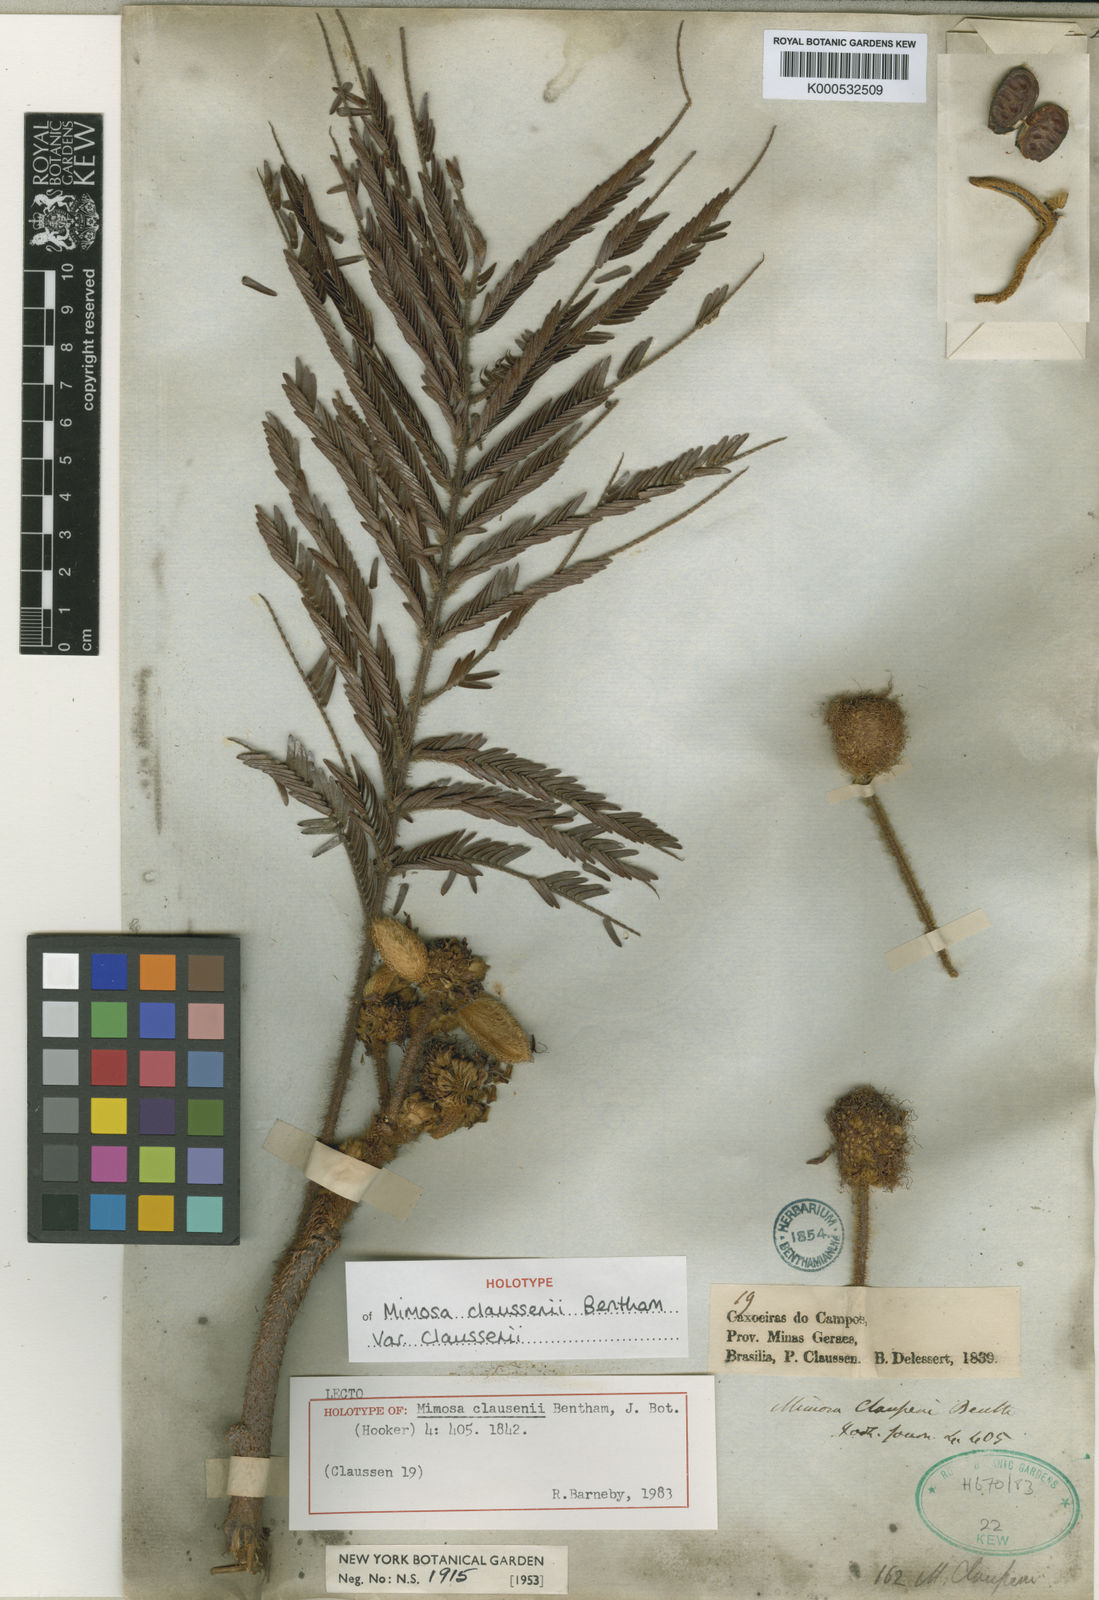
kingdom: Plantae
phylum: Tracheophyta
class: Magnoliopsida
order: Fabales
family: Fabaceae
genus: Mimosa
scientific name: Mimosa claussenii
